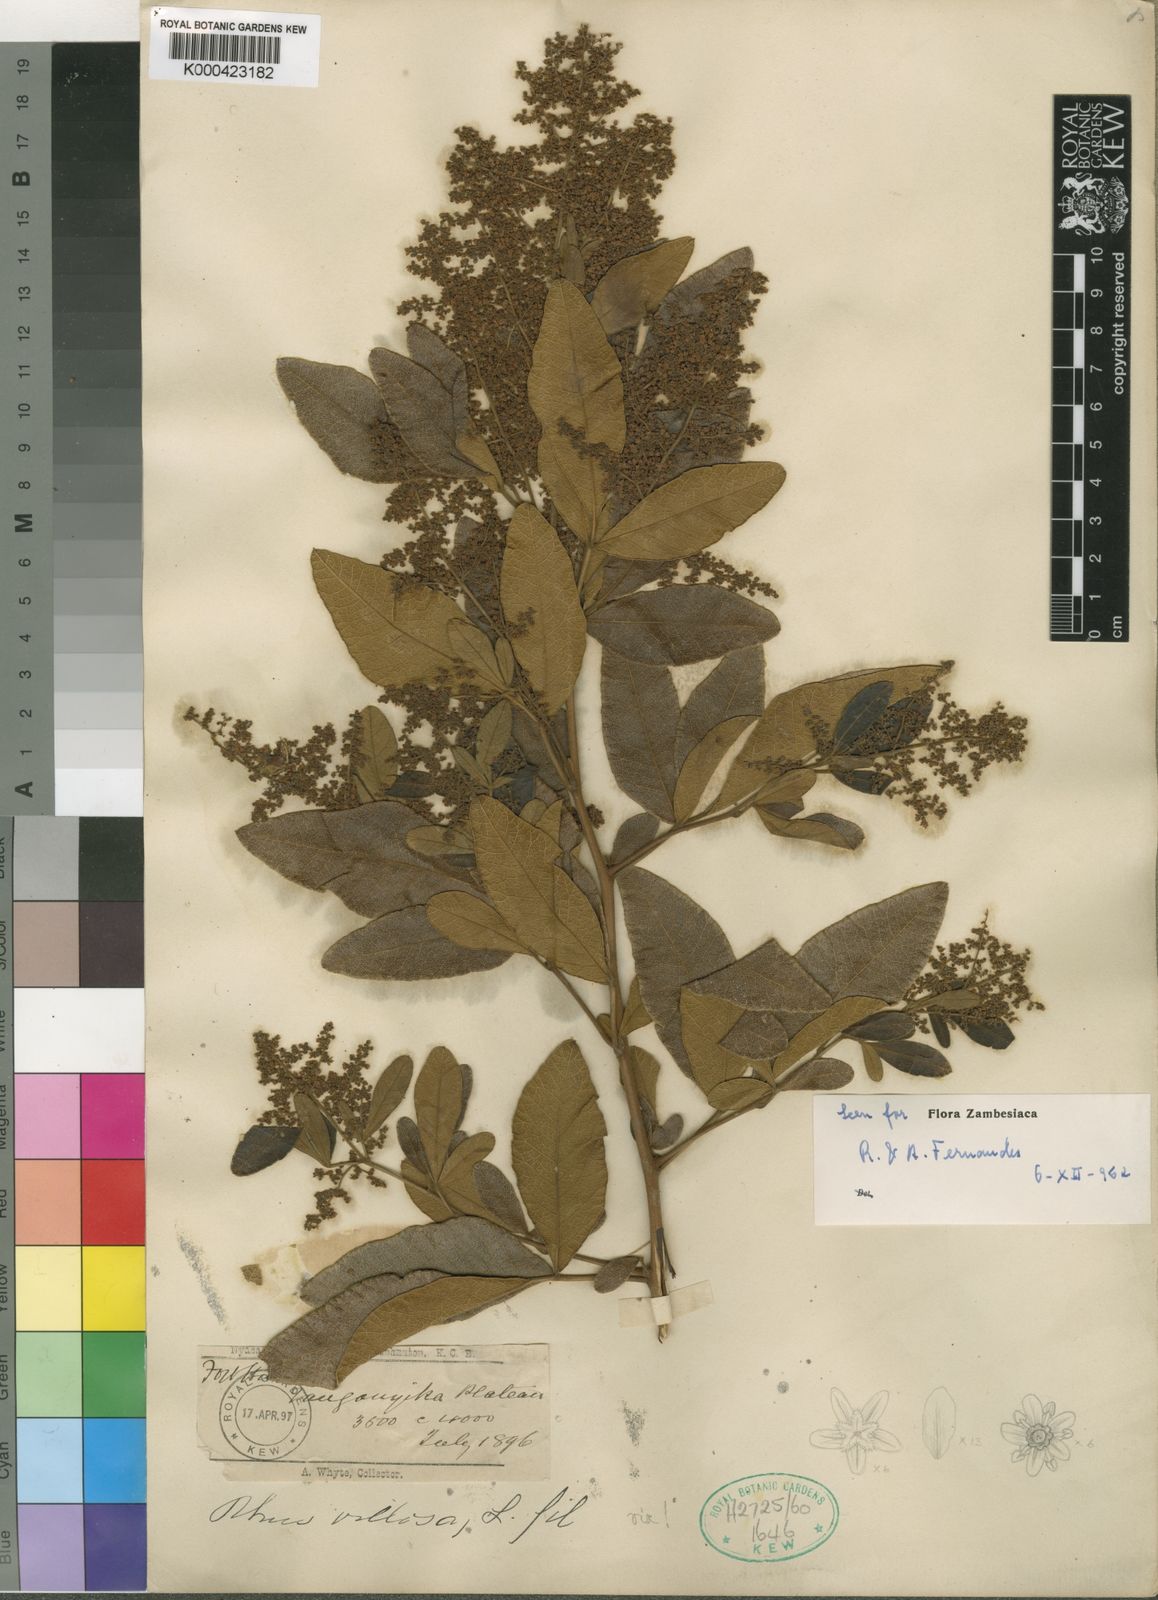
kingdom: Plantae
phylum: Tracheophyta
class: Magnoliopsida
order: Sapindales
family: Anacardiaceae
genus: Searsia
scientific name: Searsia ochracea
